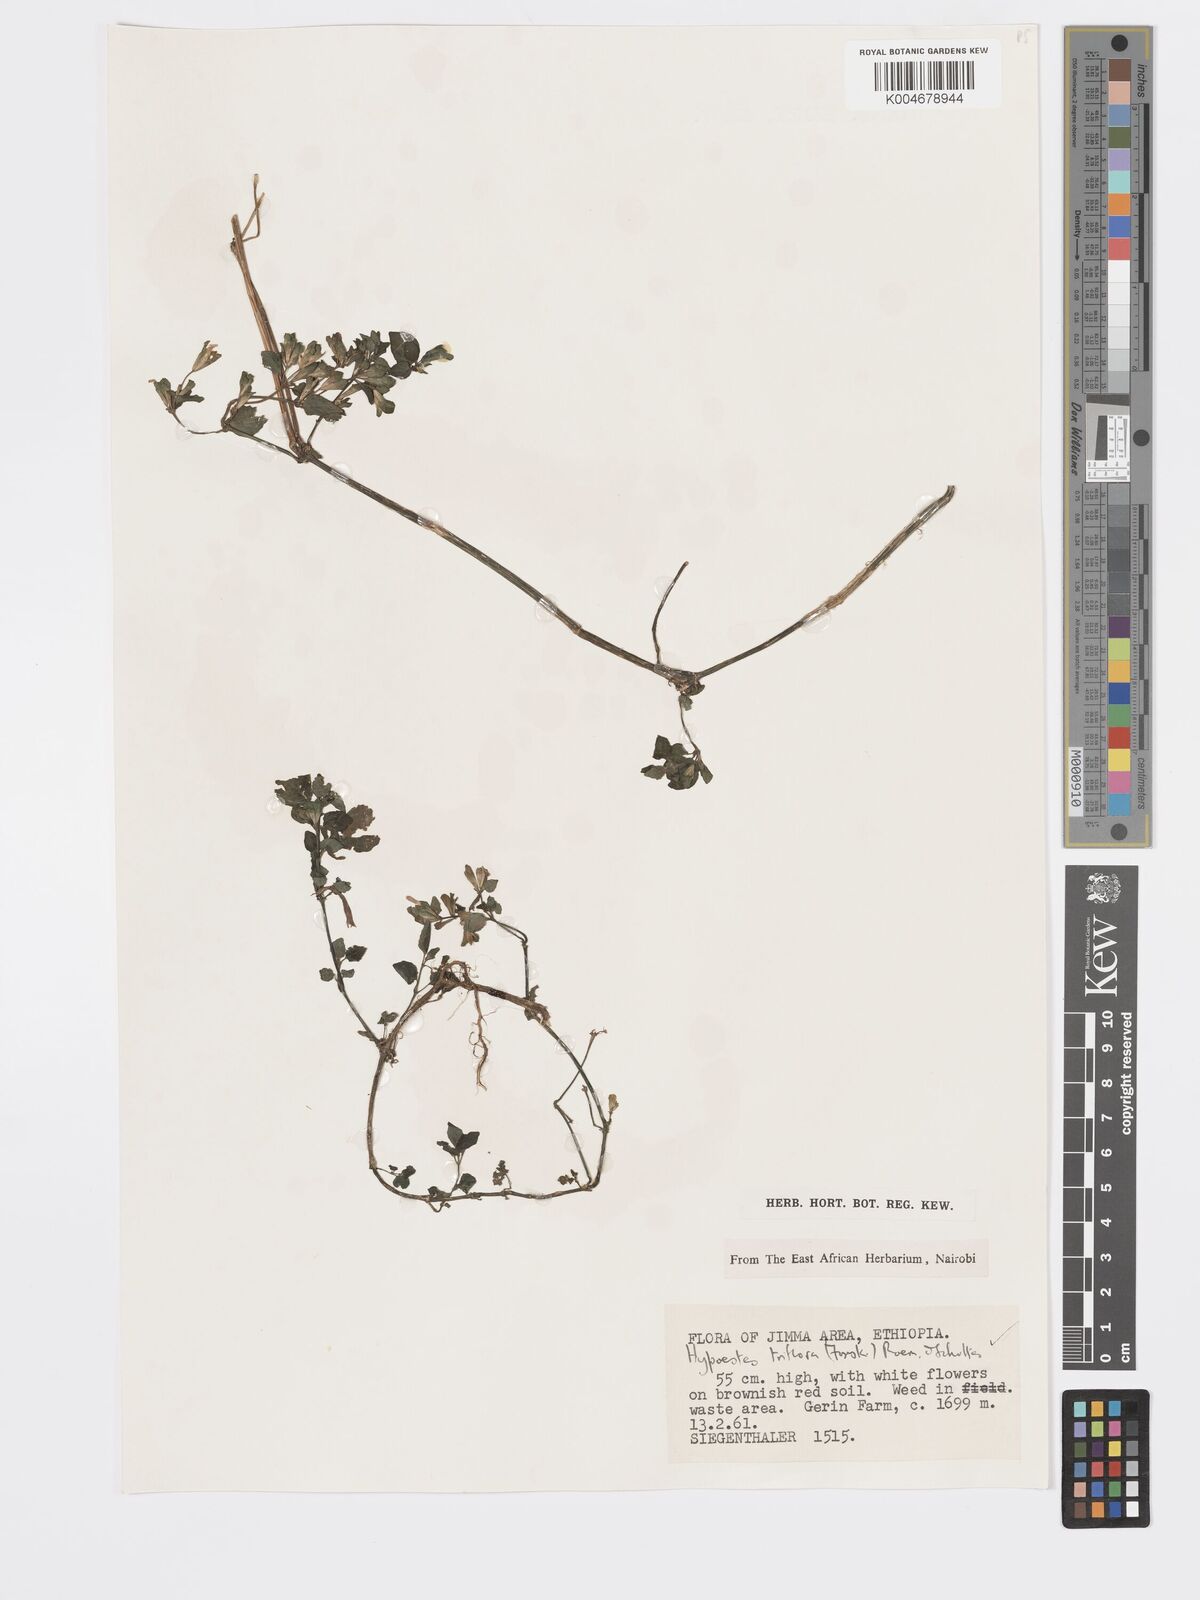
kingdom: Plantae
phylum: Tracheophyta
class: Magnoliopsida
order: Lamiales
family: Acanthaceae
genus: Hypoestes
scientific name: Hypoestes triflora
